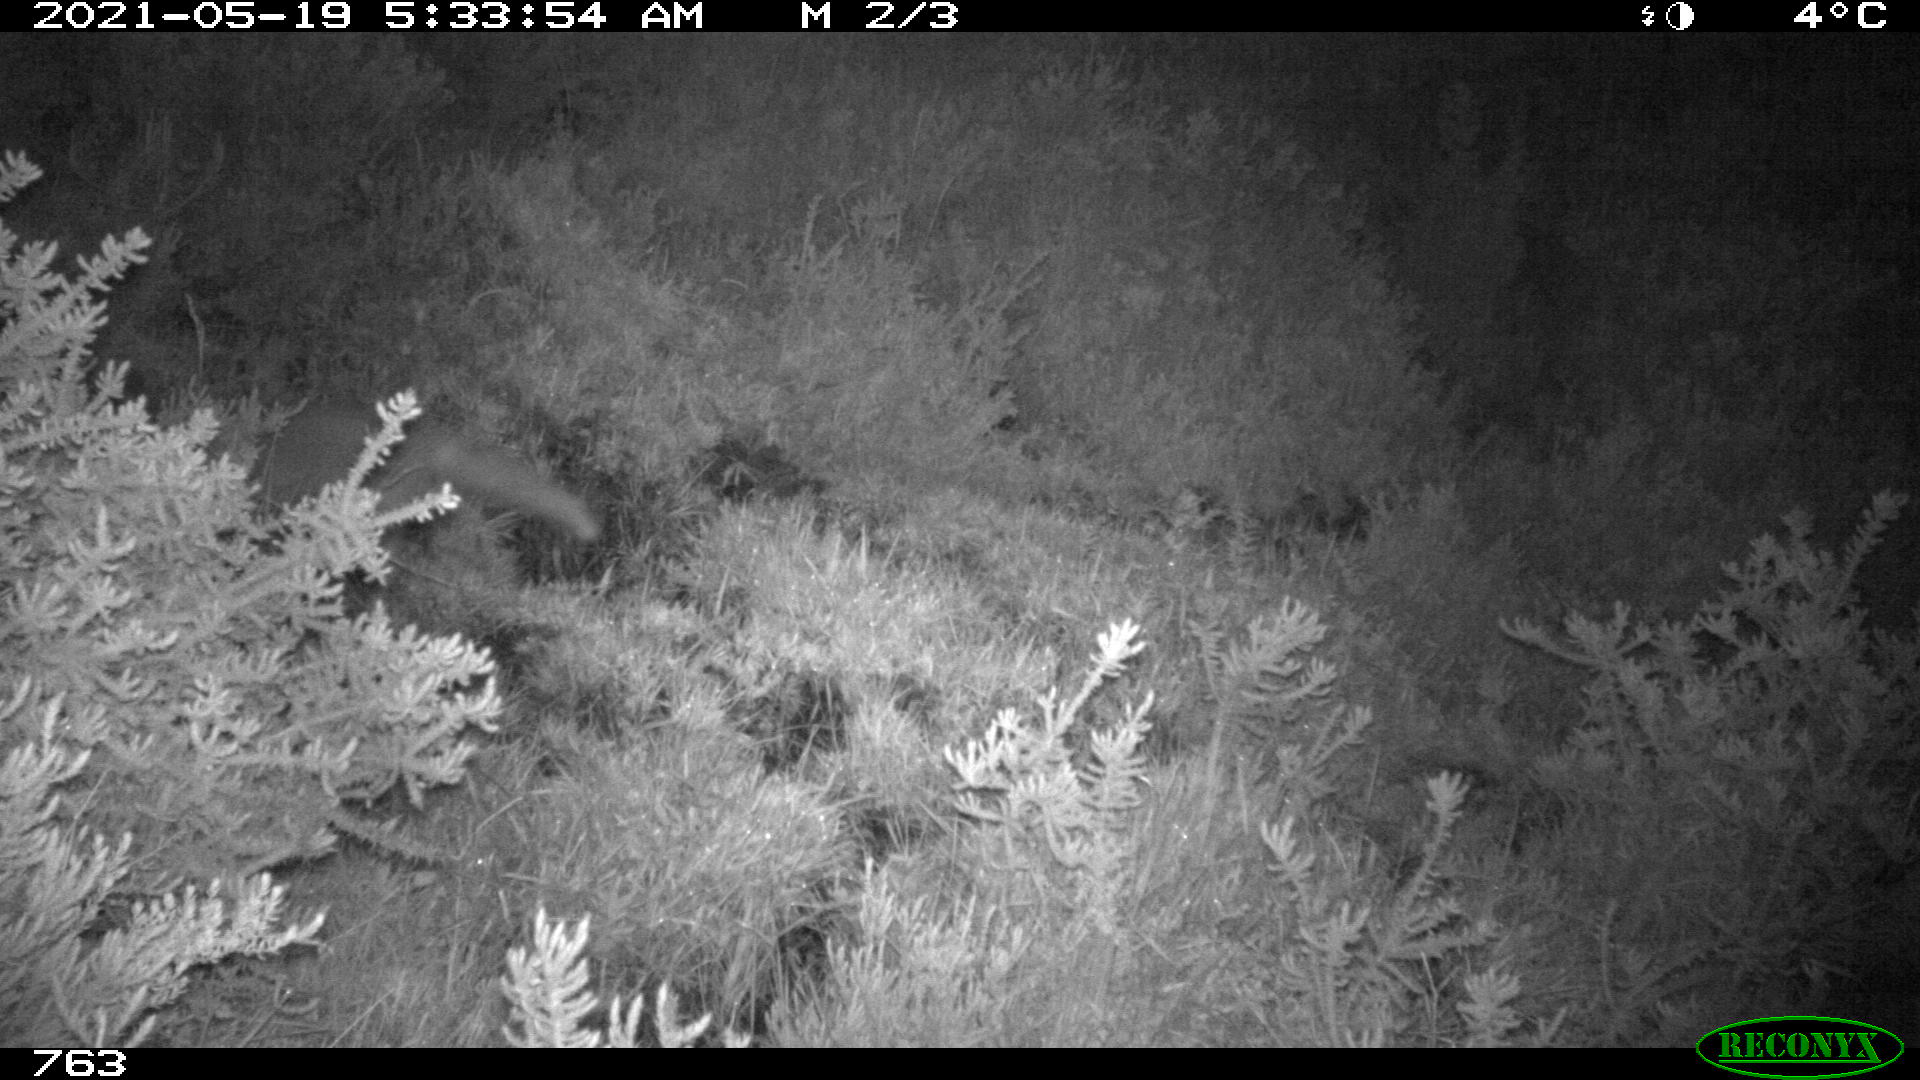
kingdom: Animalia
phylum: Chordata
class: Mammalia
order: Carnivora
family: Canidae
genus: Vulpes
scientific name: Vulpes vulpes
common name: Red fox
